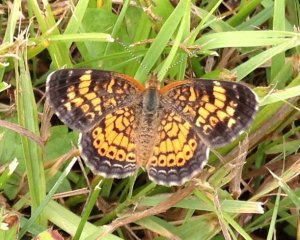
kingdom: Animalia
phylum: Arthropoda
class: Insecta
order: Lepidoptera
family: Nymphalidae
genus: Phyciodes
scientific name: Phyciodes tharos
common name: Northern Crescent
